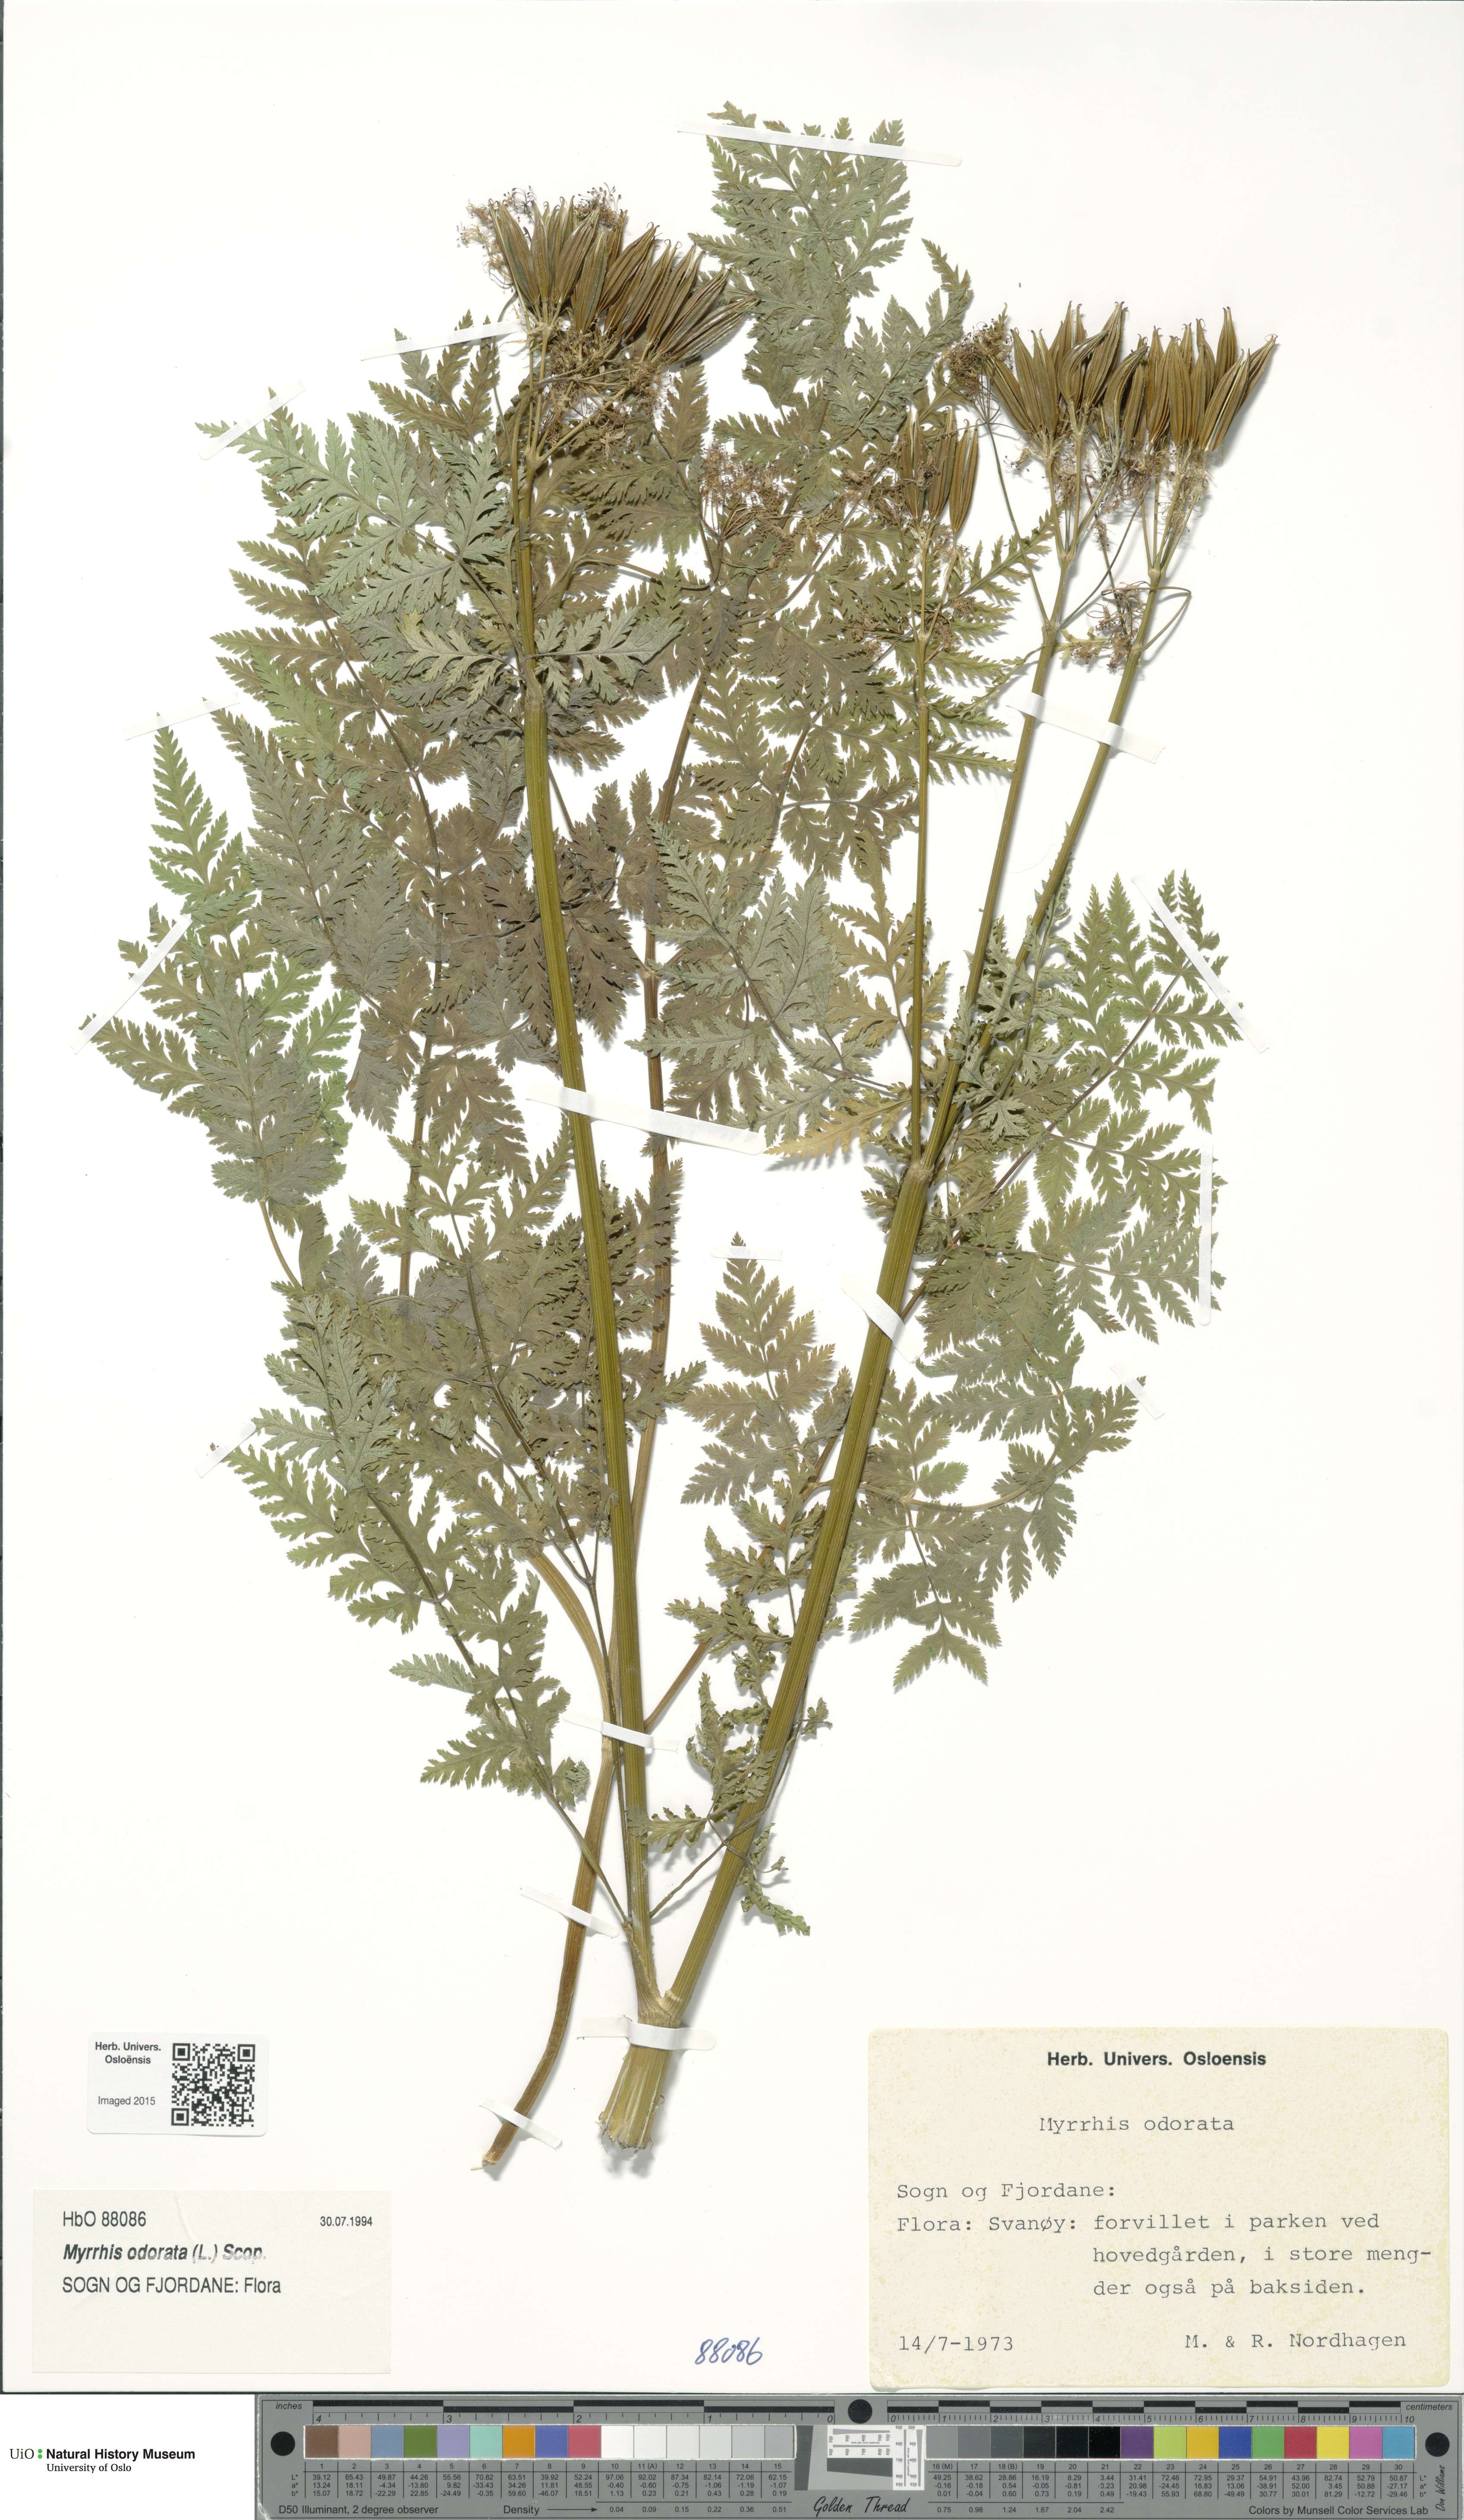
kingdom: Plantae
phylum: Tracheophyta
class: Magnoliopsida
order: Apiales
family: Apiaceae
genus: Myrrhis
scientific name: Myrrhis odorata
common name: Sweet cicely
